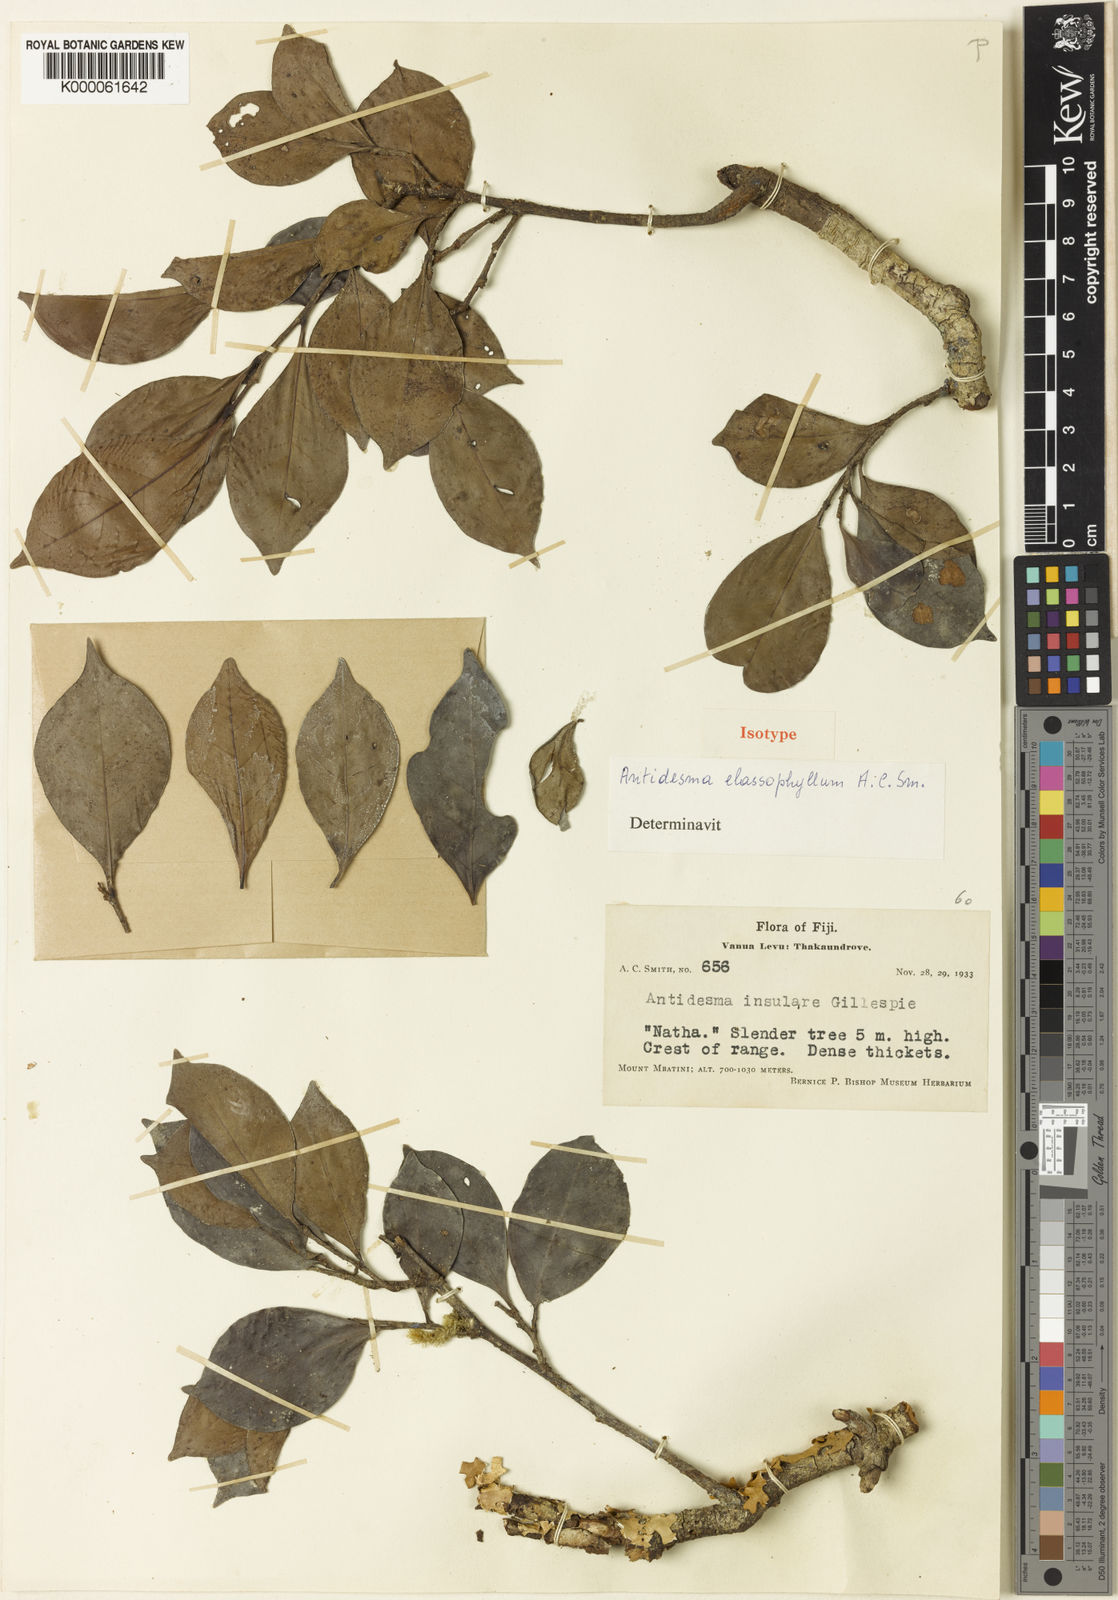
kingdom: Plantae
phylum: Tracheophyta
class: Magnoliopsida
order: Malpighiales
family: Phyllanthaceae
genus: Antidesma
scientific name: Antidesma elassophyllum
